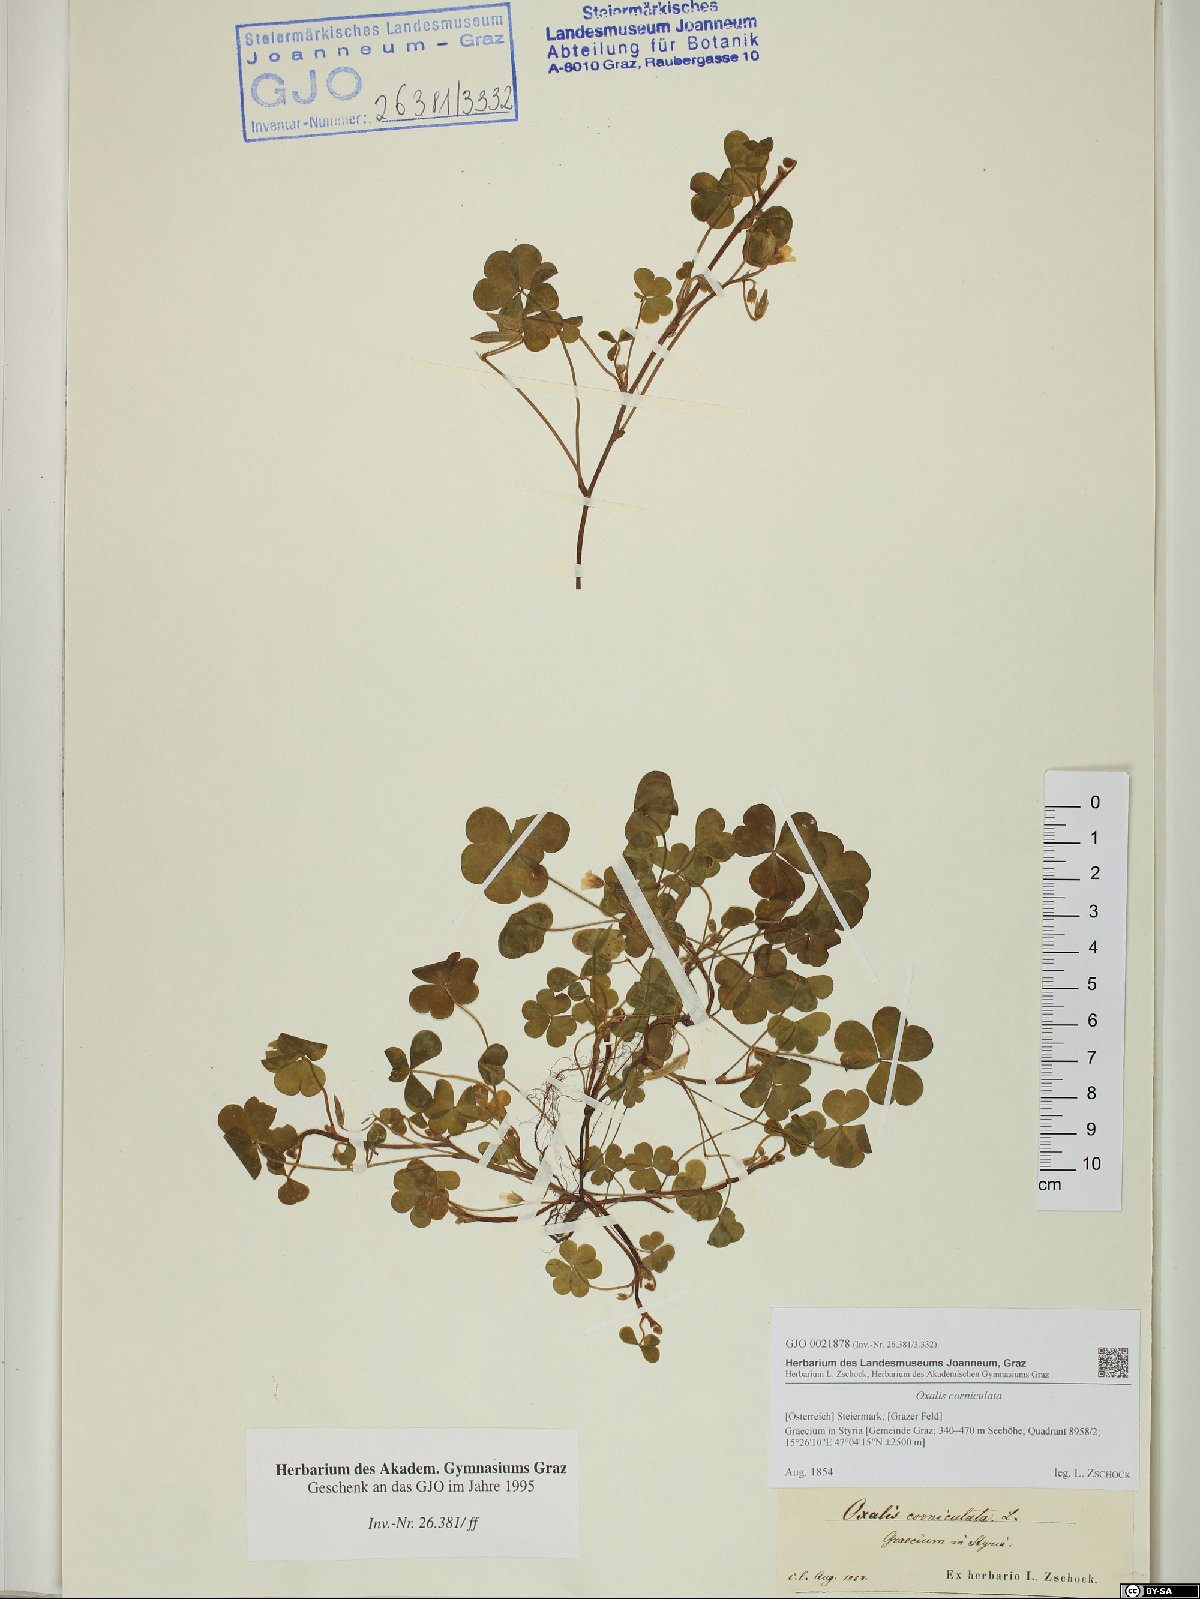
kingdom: Plantae
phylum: Tracheophyta
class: Magnoliopsida
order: Oxalidales
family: Oxalidaceae
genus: Oxalis
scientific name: Oxalis corniculata
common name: Procumbent yellow-sorrel
